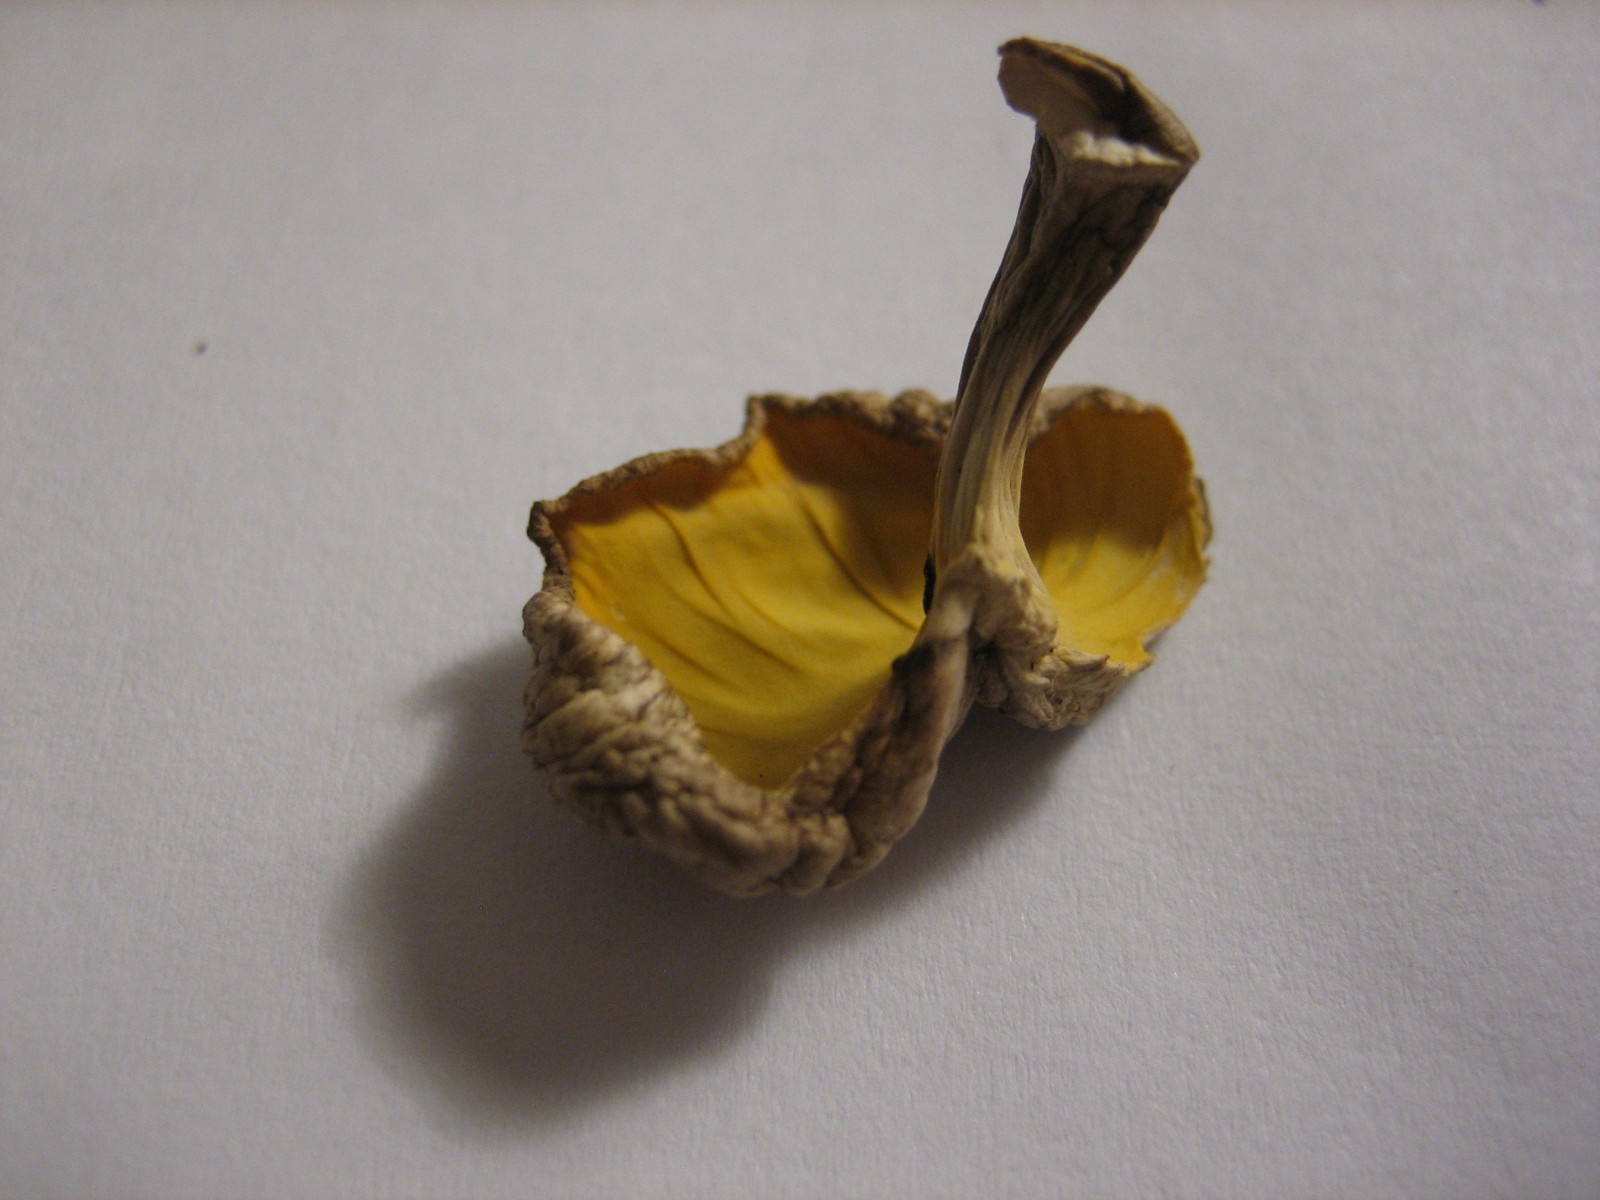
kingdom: Fungi
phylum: Basidiomycota
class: Agaricomycetes
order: Cantharellales
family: Hydnaceae
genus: Craterellus
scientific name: Craterellus
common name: kantarel
